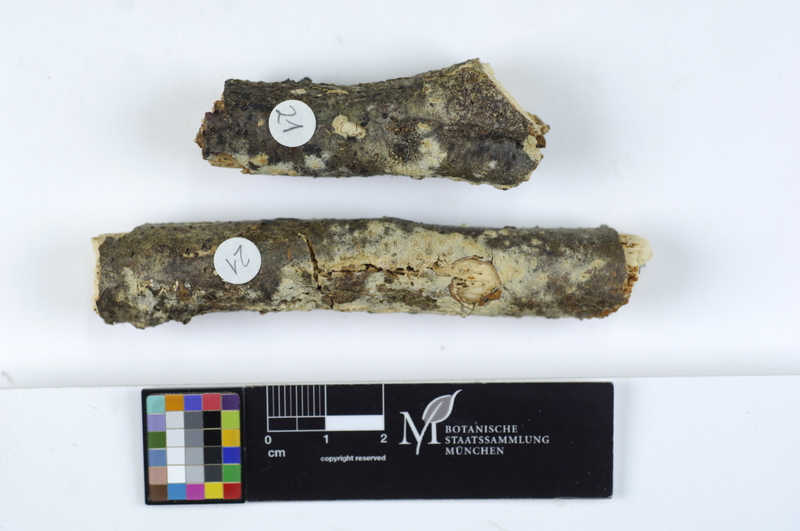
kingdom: Plantae
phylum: Tracheophyta
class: Magnoliopsida
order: Fagales
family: Fagaceae
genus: Fagus
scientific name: Fagus sylvatica
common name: Beech
